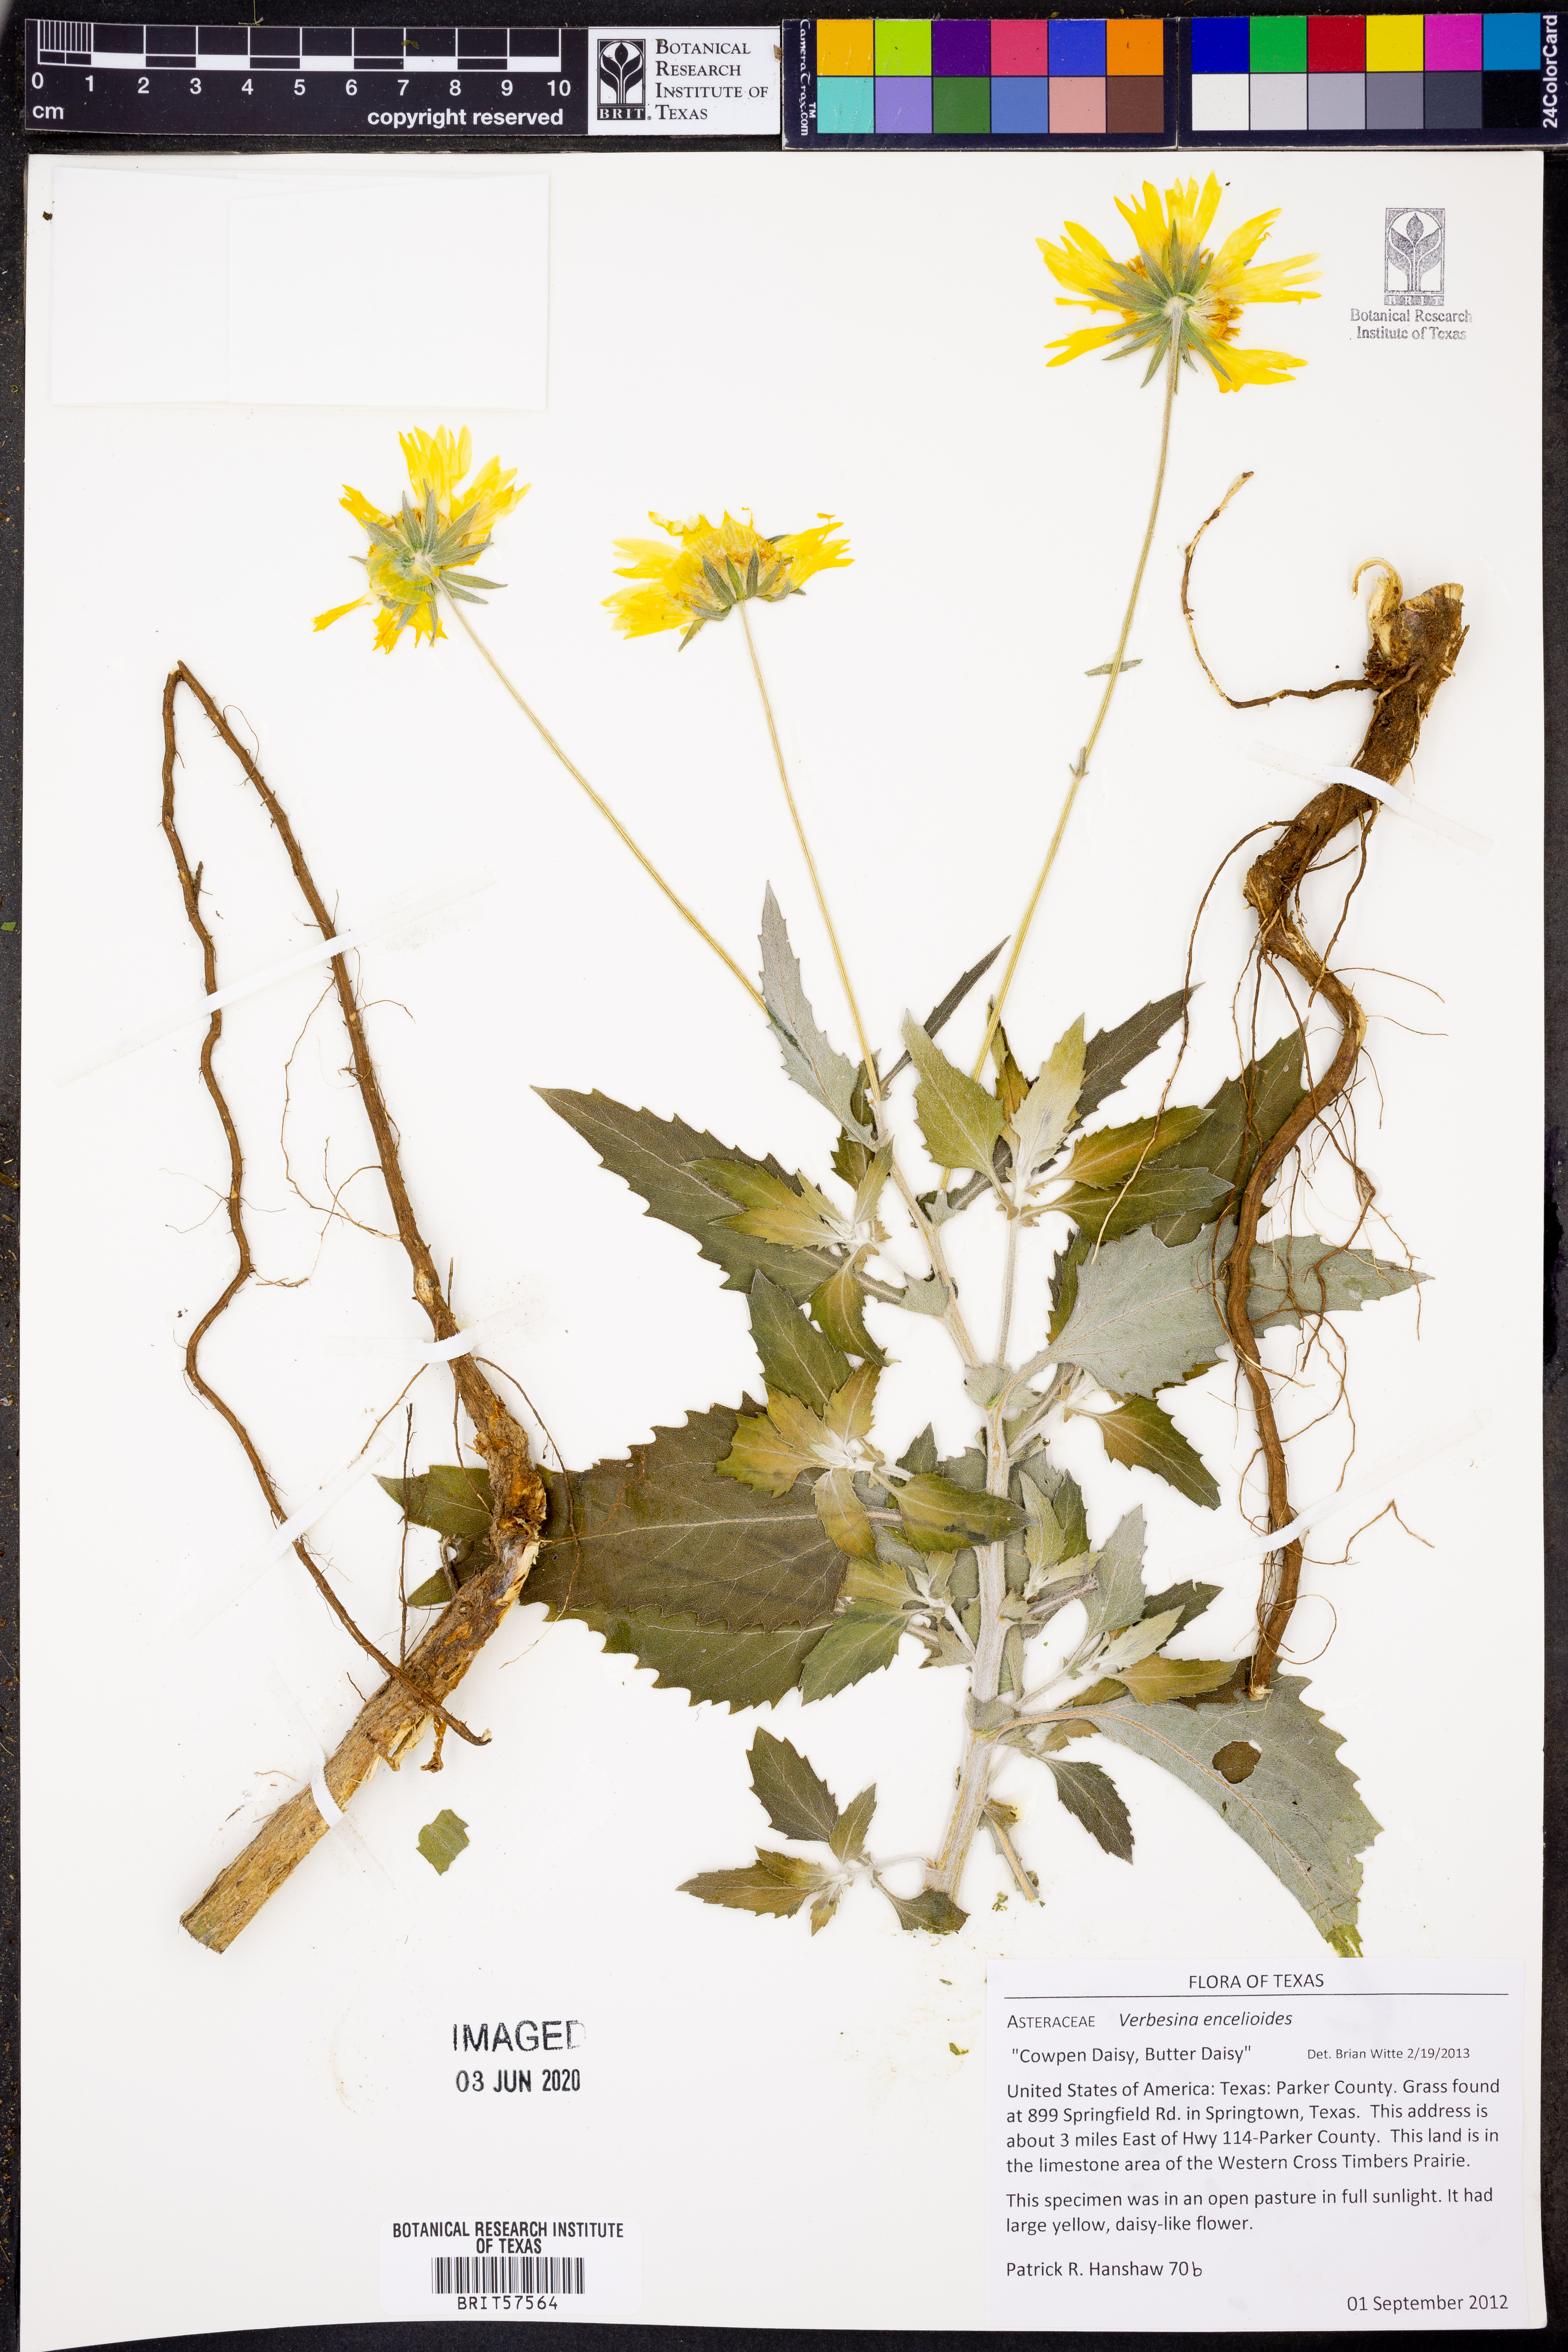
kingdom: Plantae
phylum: Tracheophyta
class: Magnoliopsida
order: Asterales
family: Asteraceae
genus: Verbesina
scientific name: Verbesina encelioides
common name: Golden crownbeard
